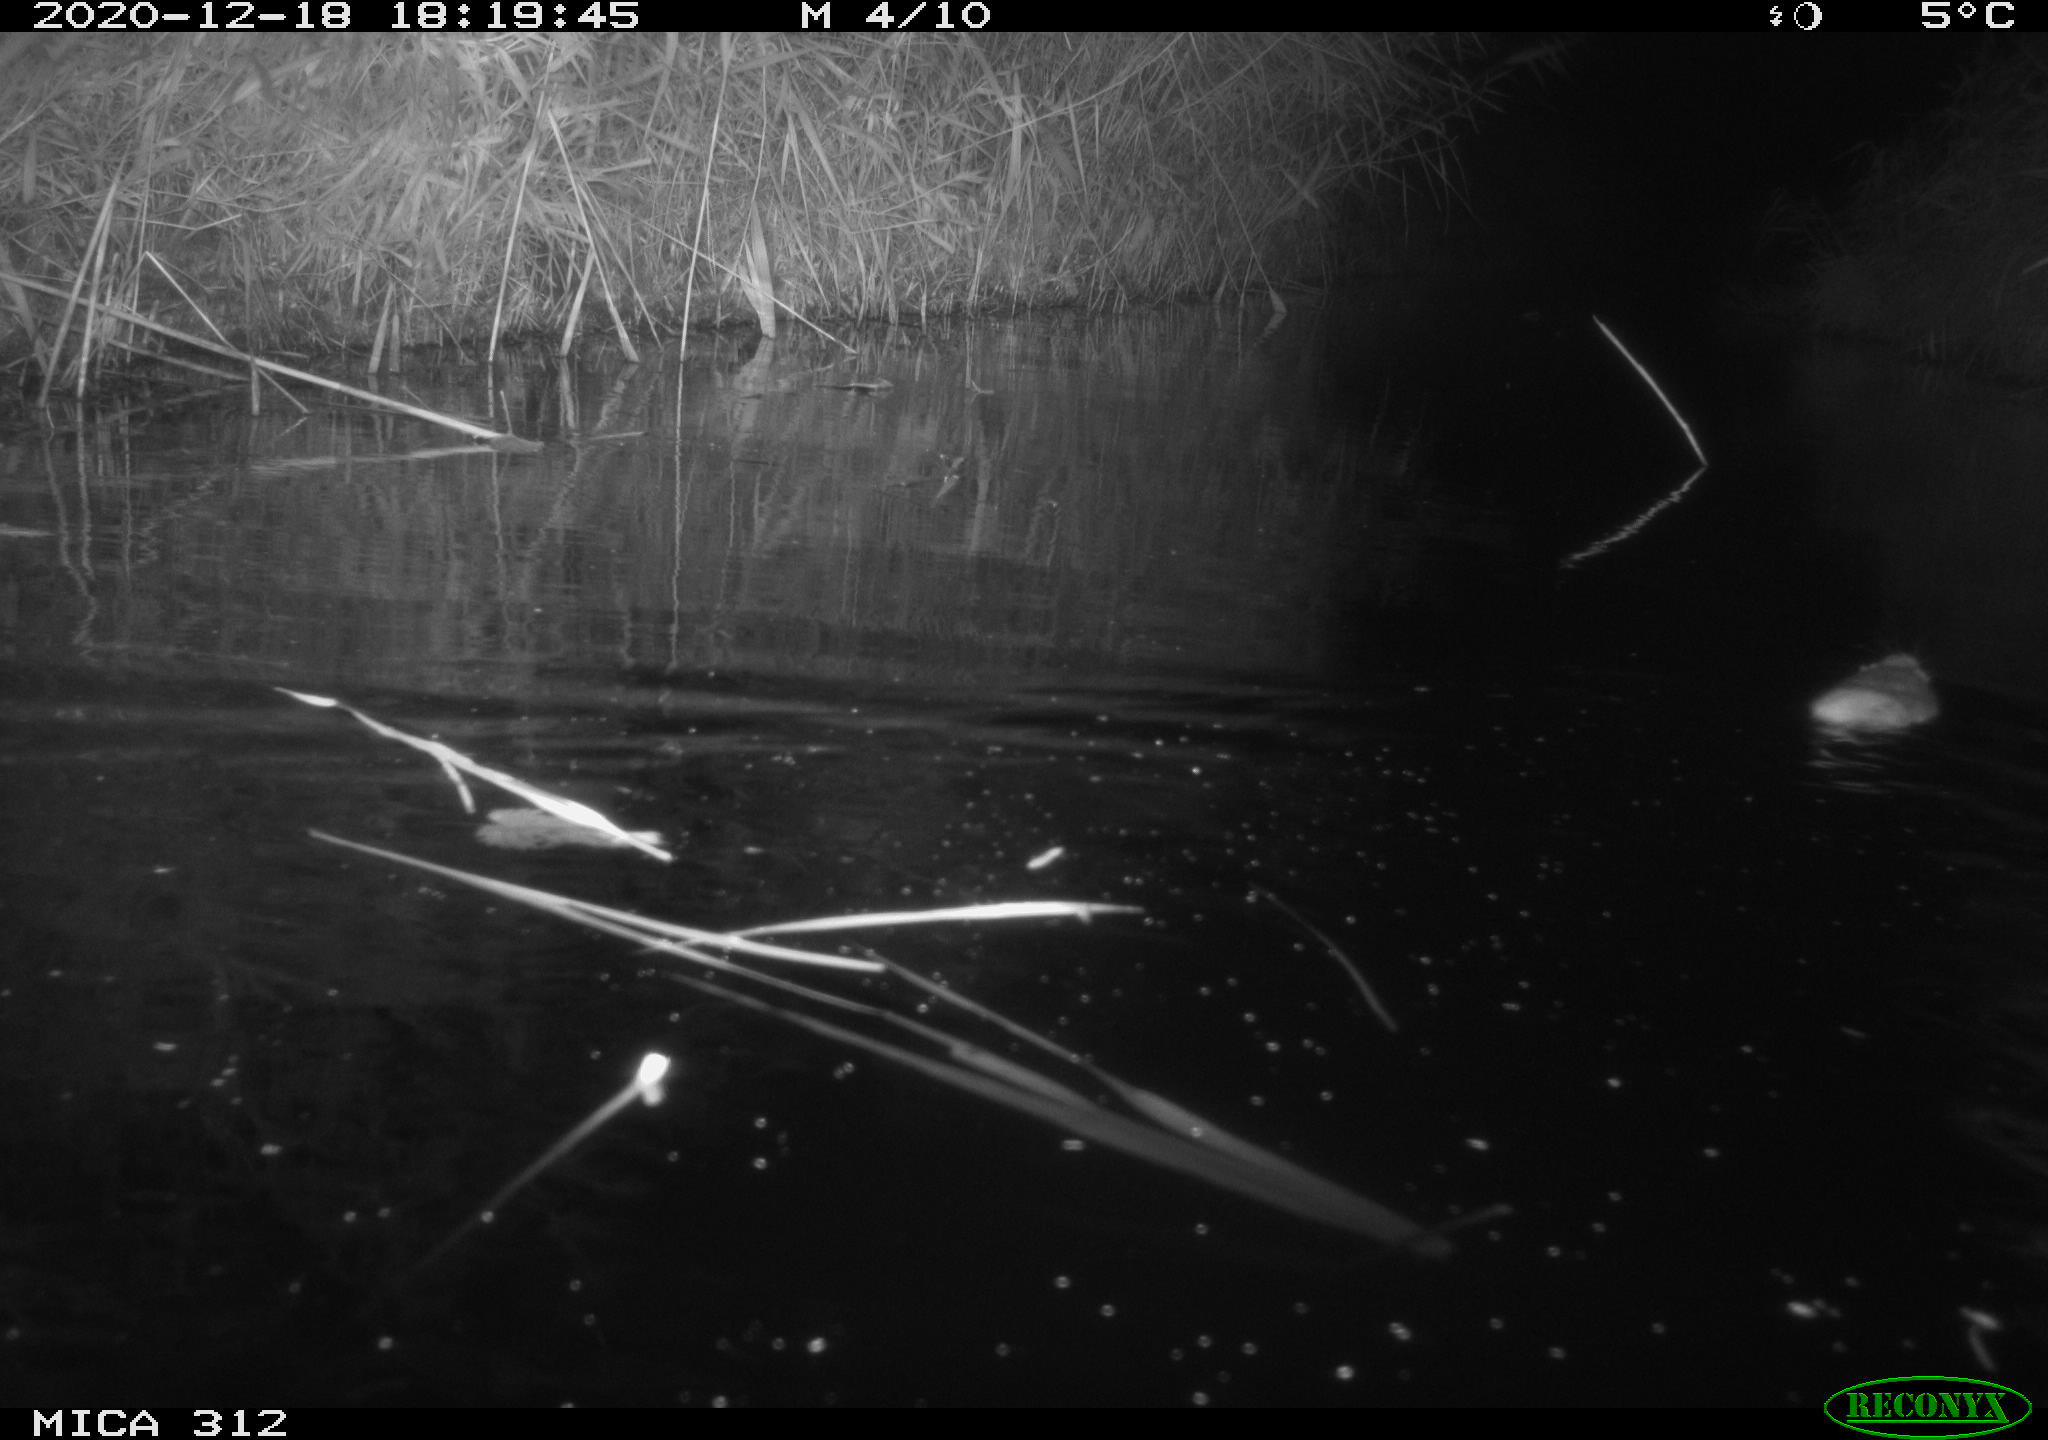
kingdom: Animalia
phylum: Chordata
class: Mammalia
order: Rodentia
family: Muridae
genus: Rattus
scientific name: Rattus norvegicus
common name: Brown rat
